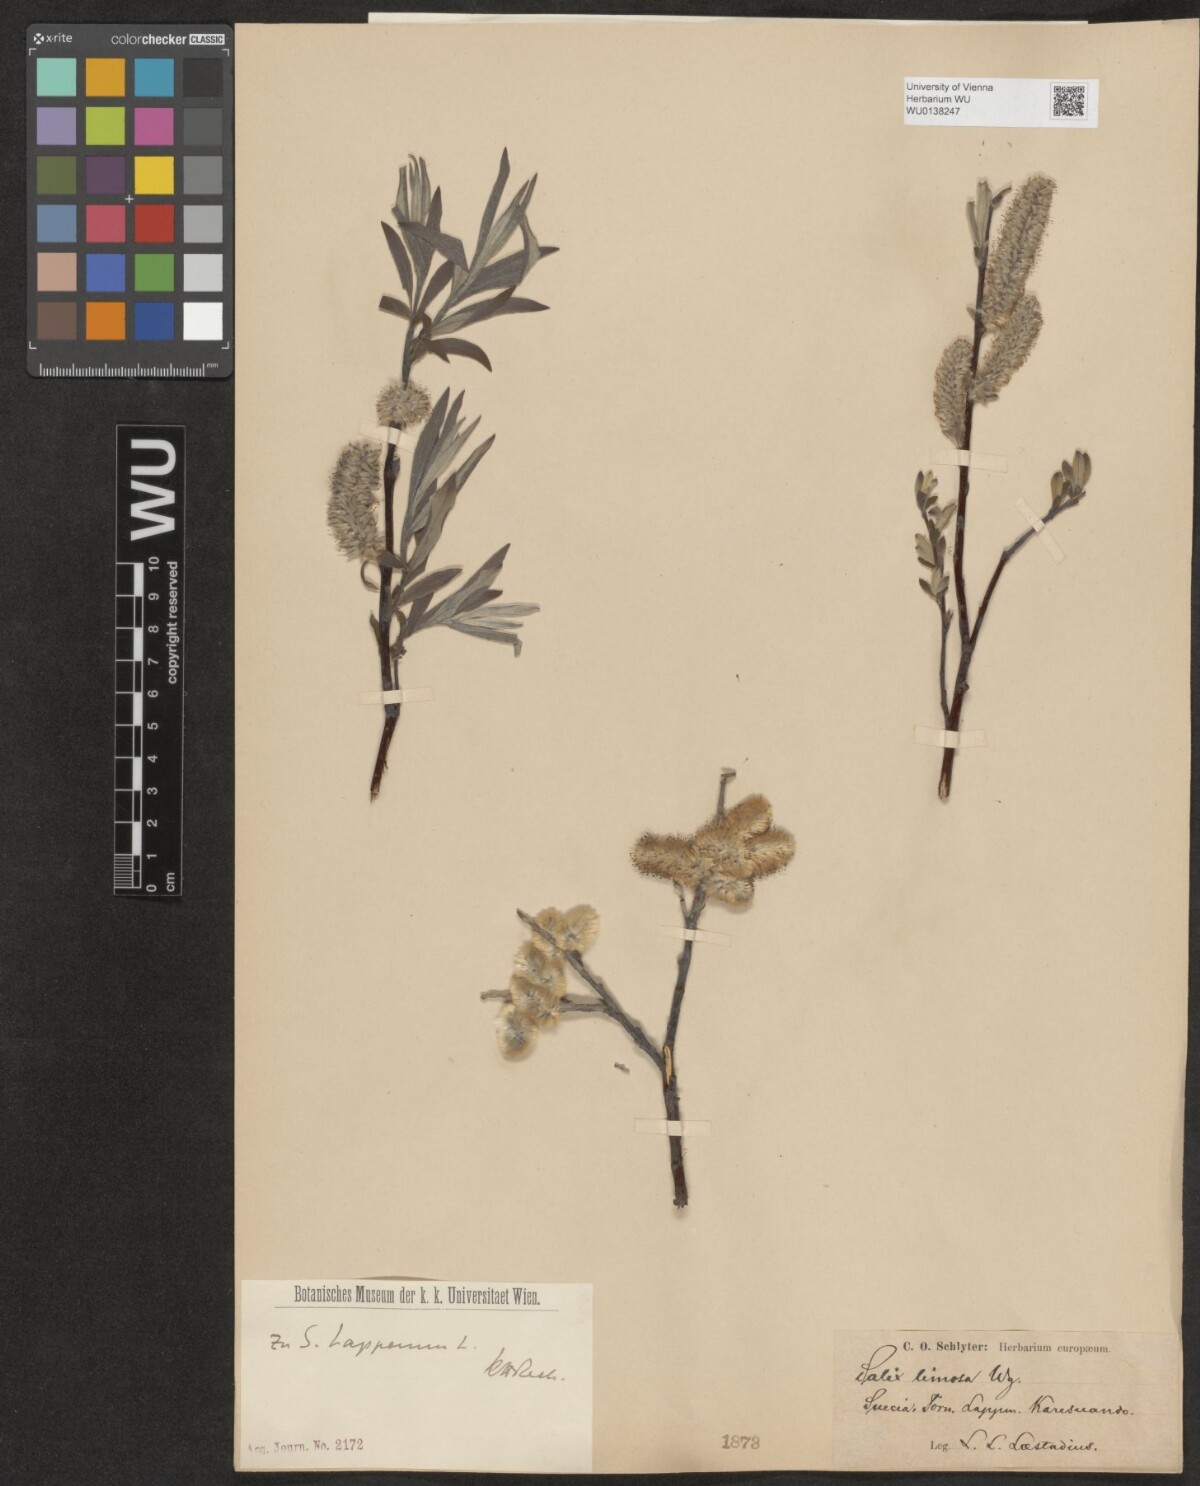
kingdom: Plantae
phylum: Tracheophyta
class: Magnoliopsida
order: Malpighiales
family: Salicaceae
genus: Salix
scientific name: Salix lapponum
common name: Downy willow
